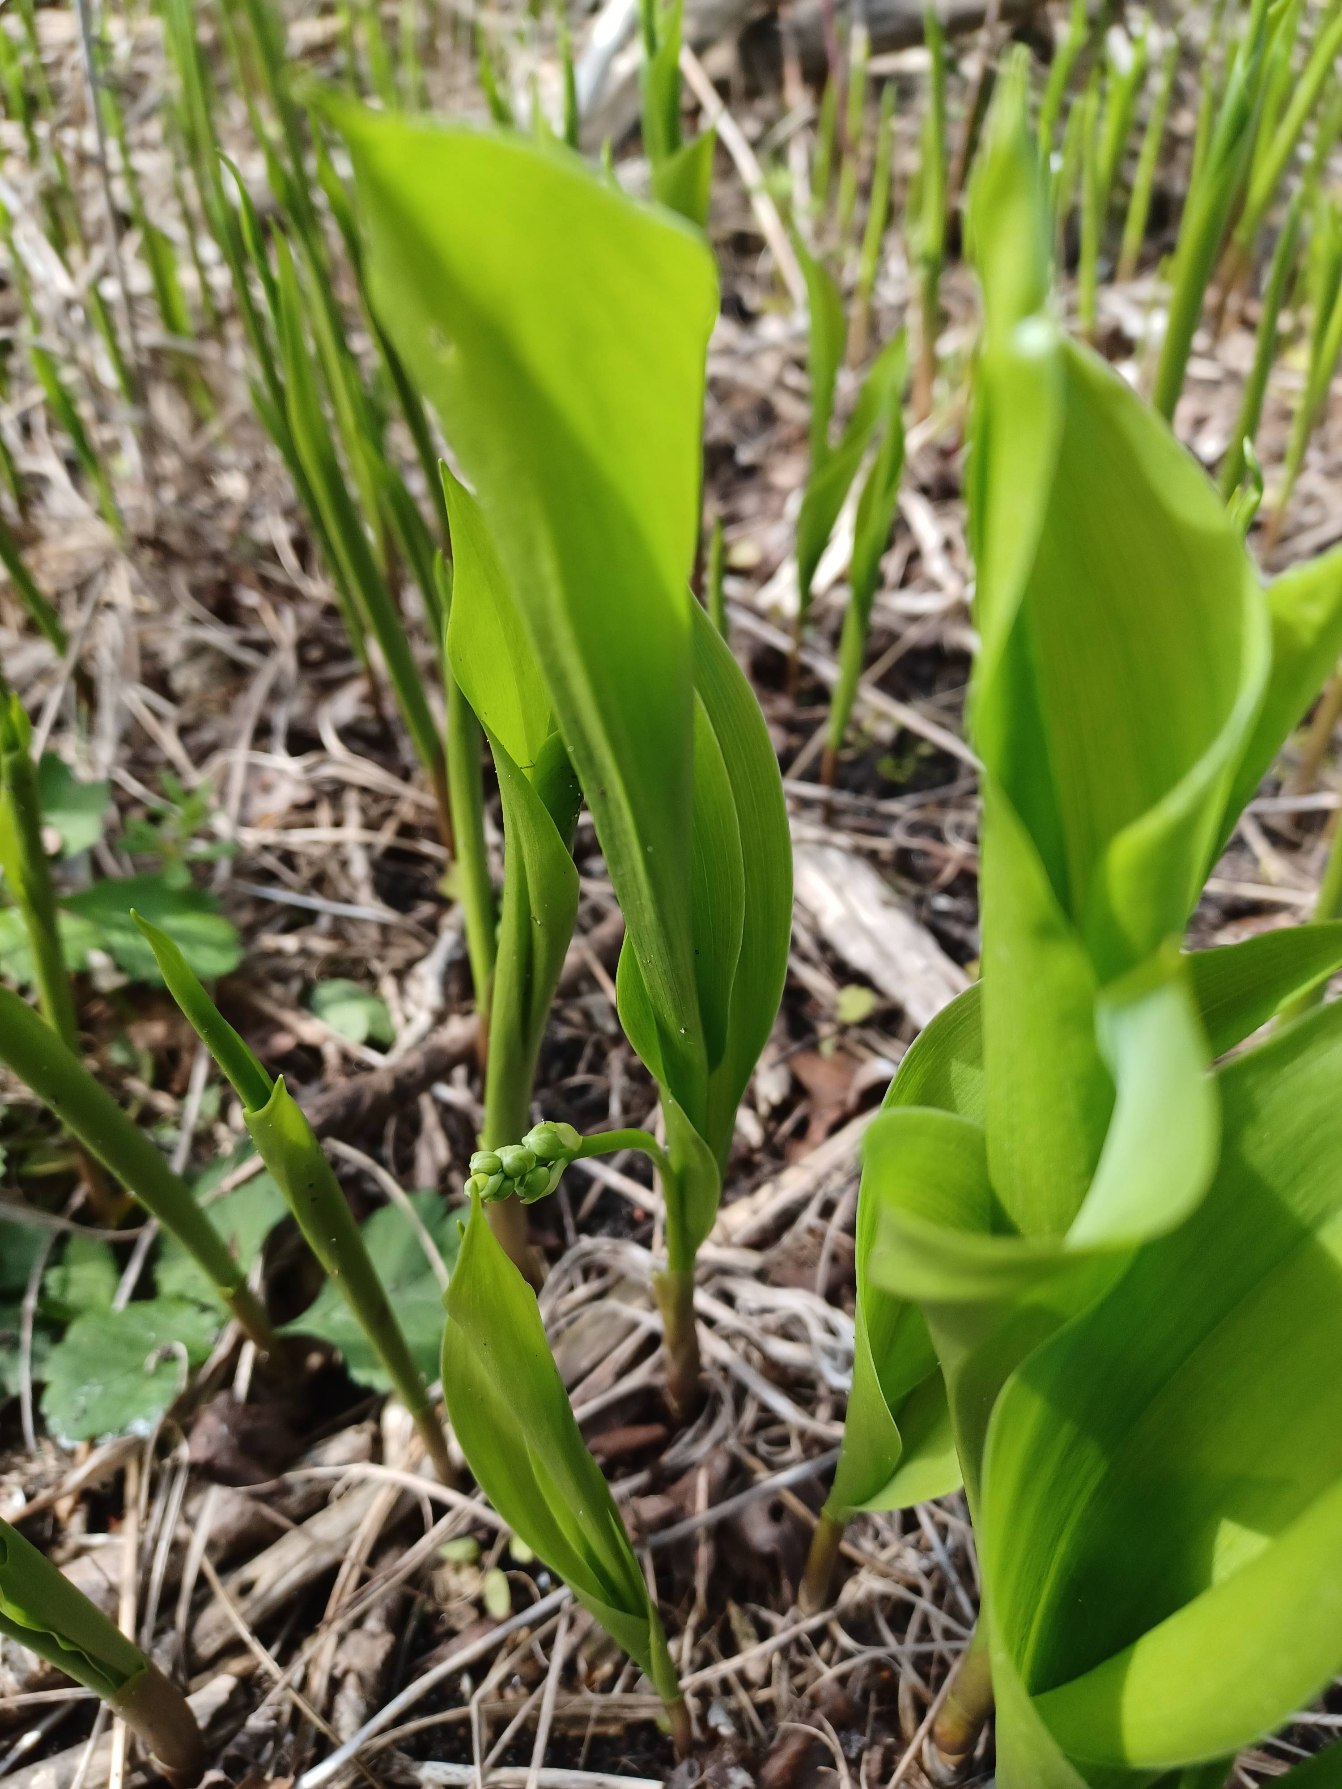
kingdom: Plantae
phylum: Tracheophyta
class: Liliopsida
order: Asparagales
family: Asparagaceae
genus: Convallaria
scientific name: Convallaria majalis
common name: Liljekonval
